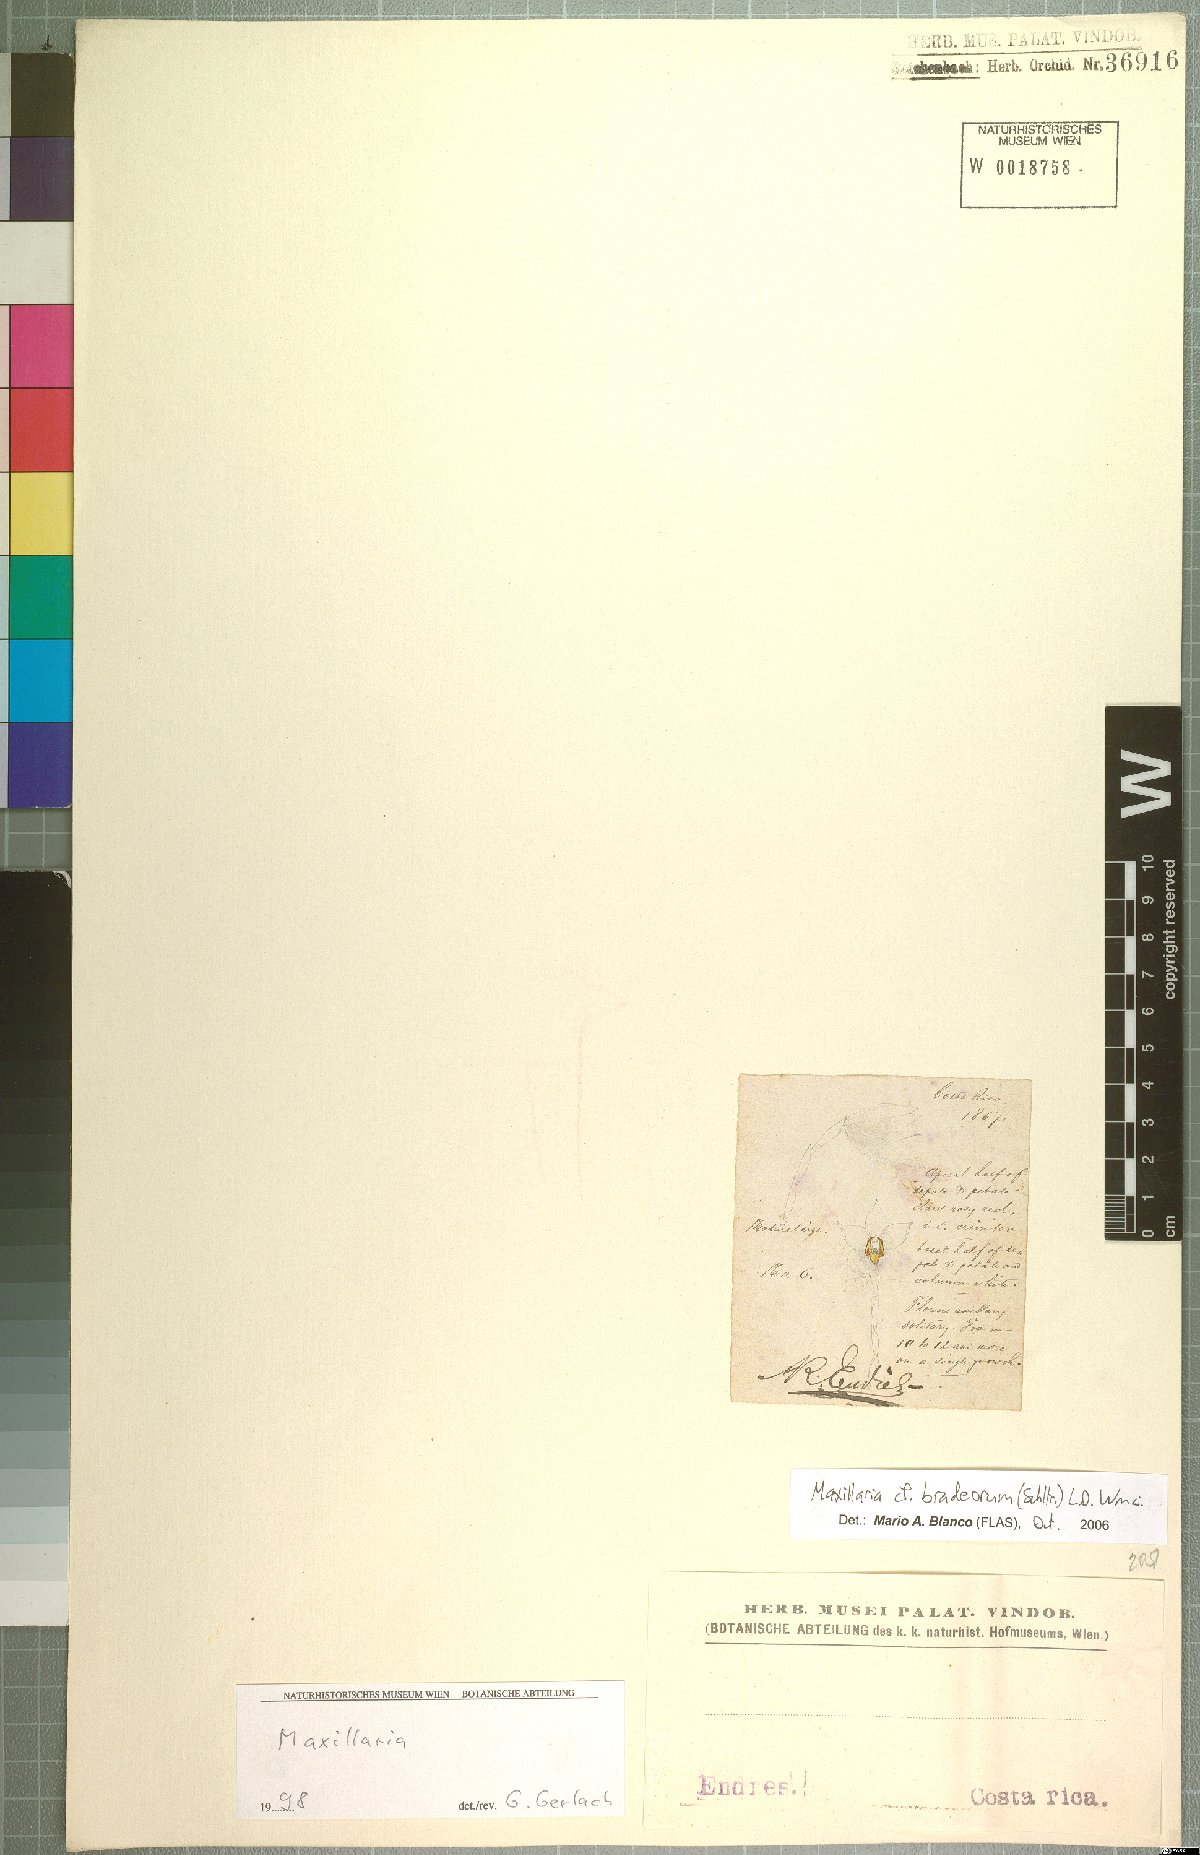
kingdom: Plantae
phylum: Tracheophyta
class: Liliopsida
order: Asparagales
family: Orchidaceae
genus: Maxillaria
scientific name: Maxillaria bradeorum
